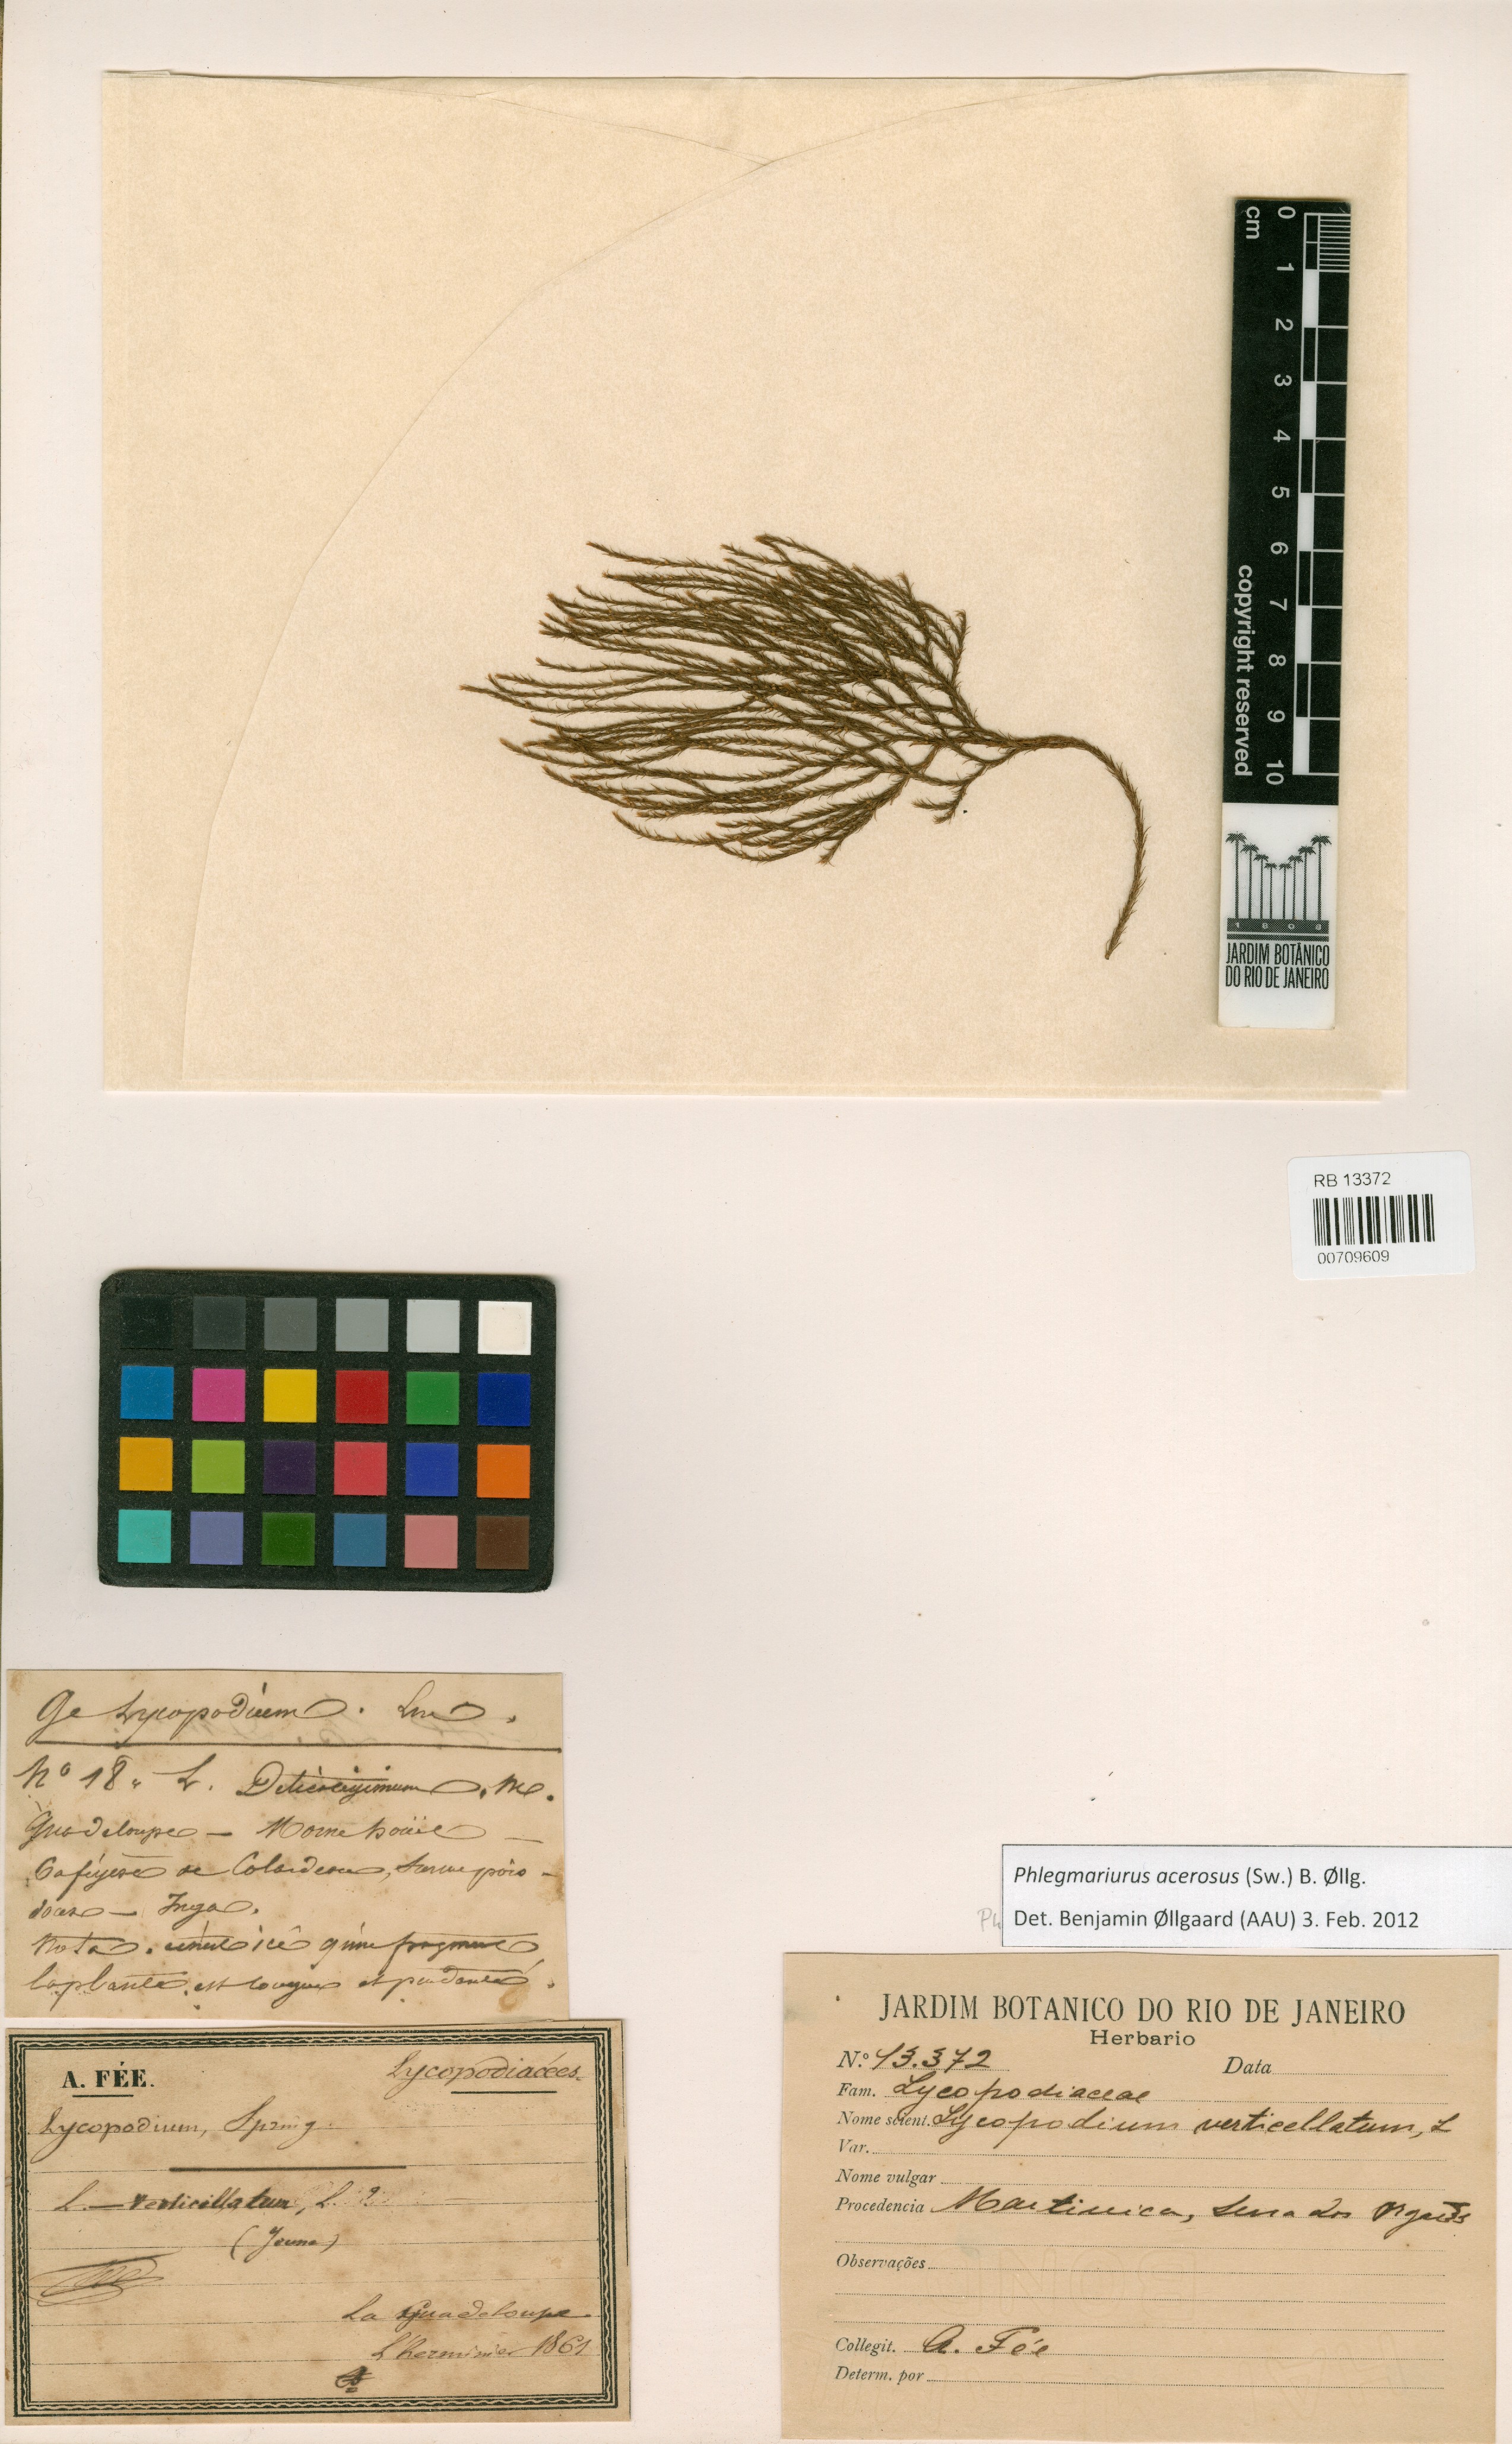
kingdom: Plantae
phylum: Tracheophyta
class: Lycopodiopsida
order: Lycopodiales
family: Lycopodiaceae
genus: Phlegmariurus
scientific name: Phlegmariurus acerosus
